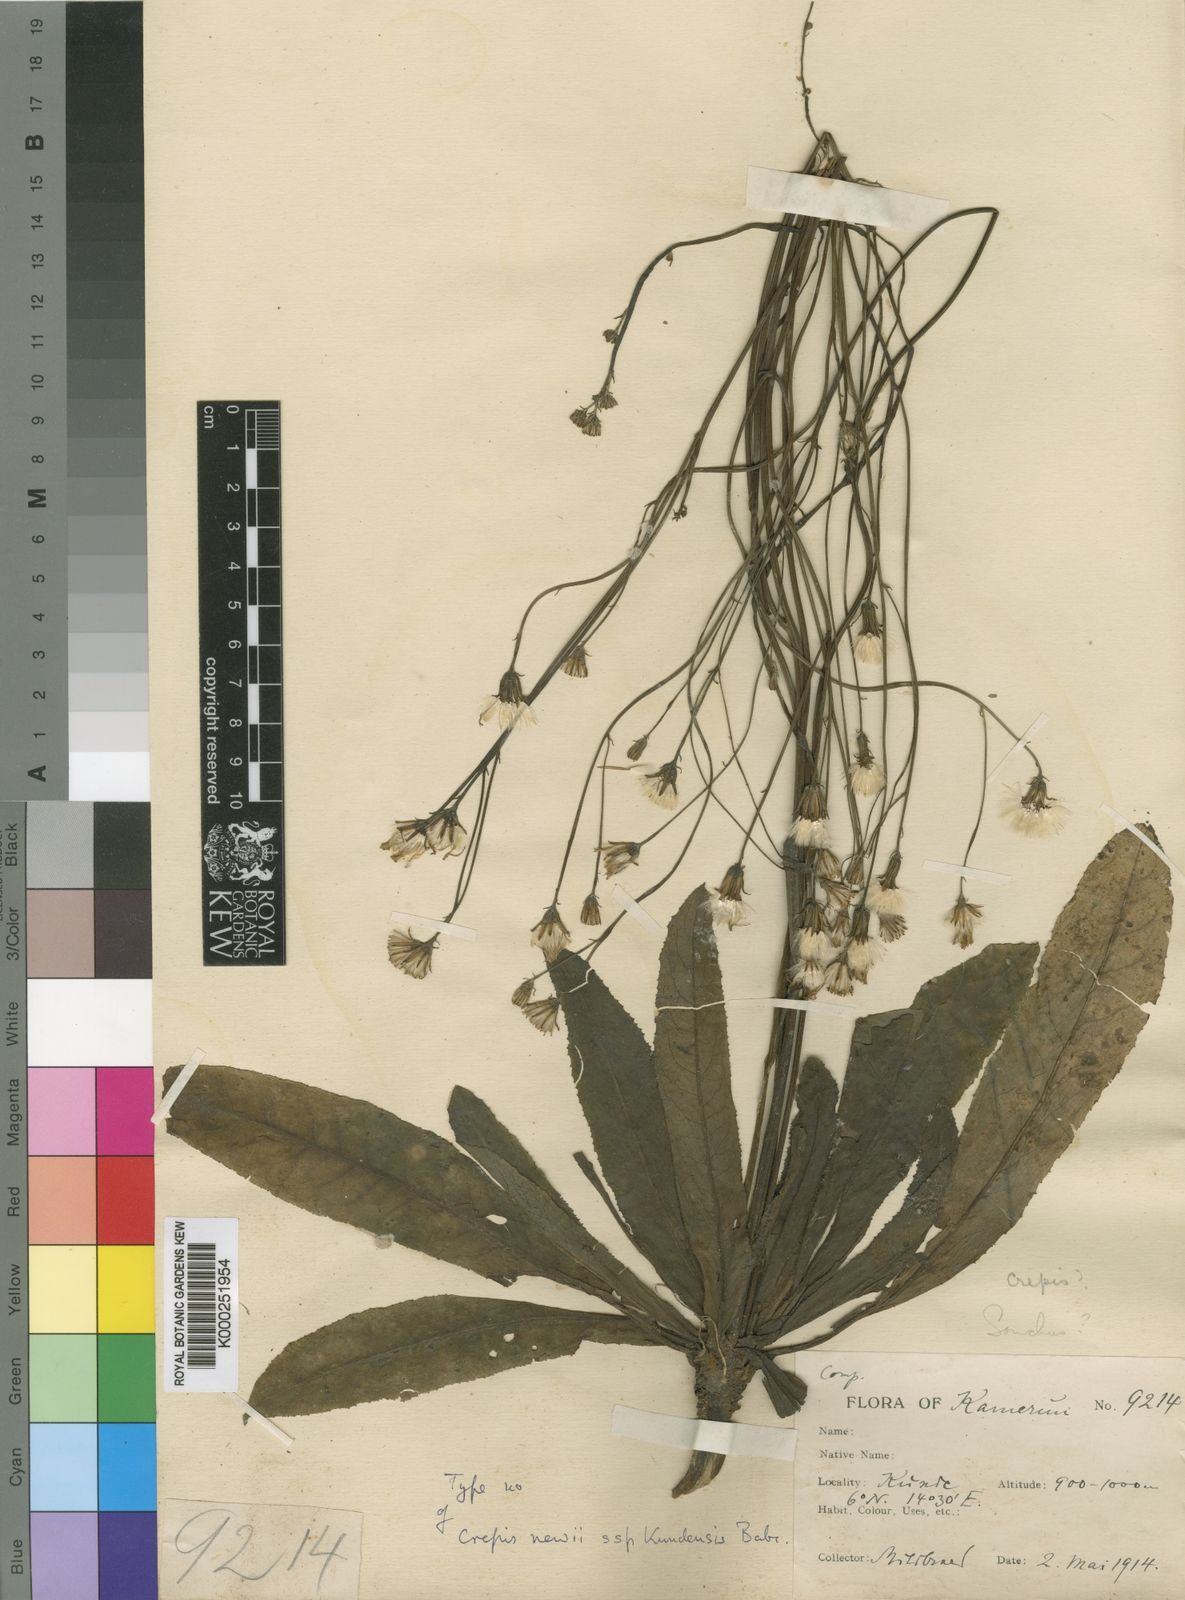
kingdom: Plantae
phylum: Tracheophyta
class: Magnoliopsida
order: Asterales
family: Asteraceae
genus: Crepis
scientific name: Crepis
